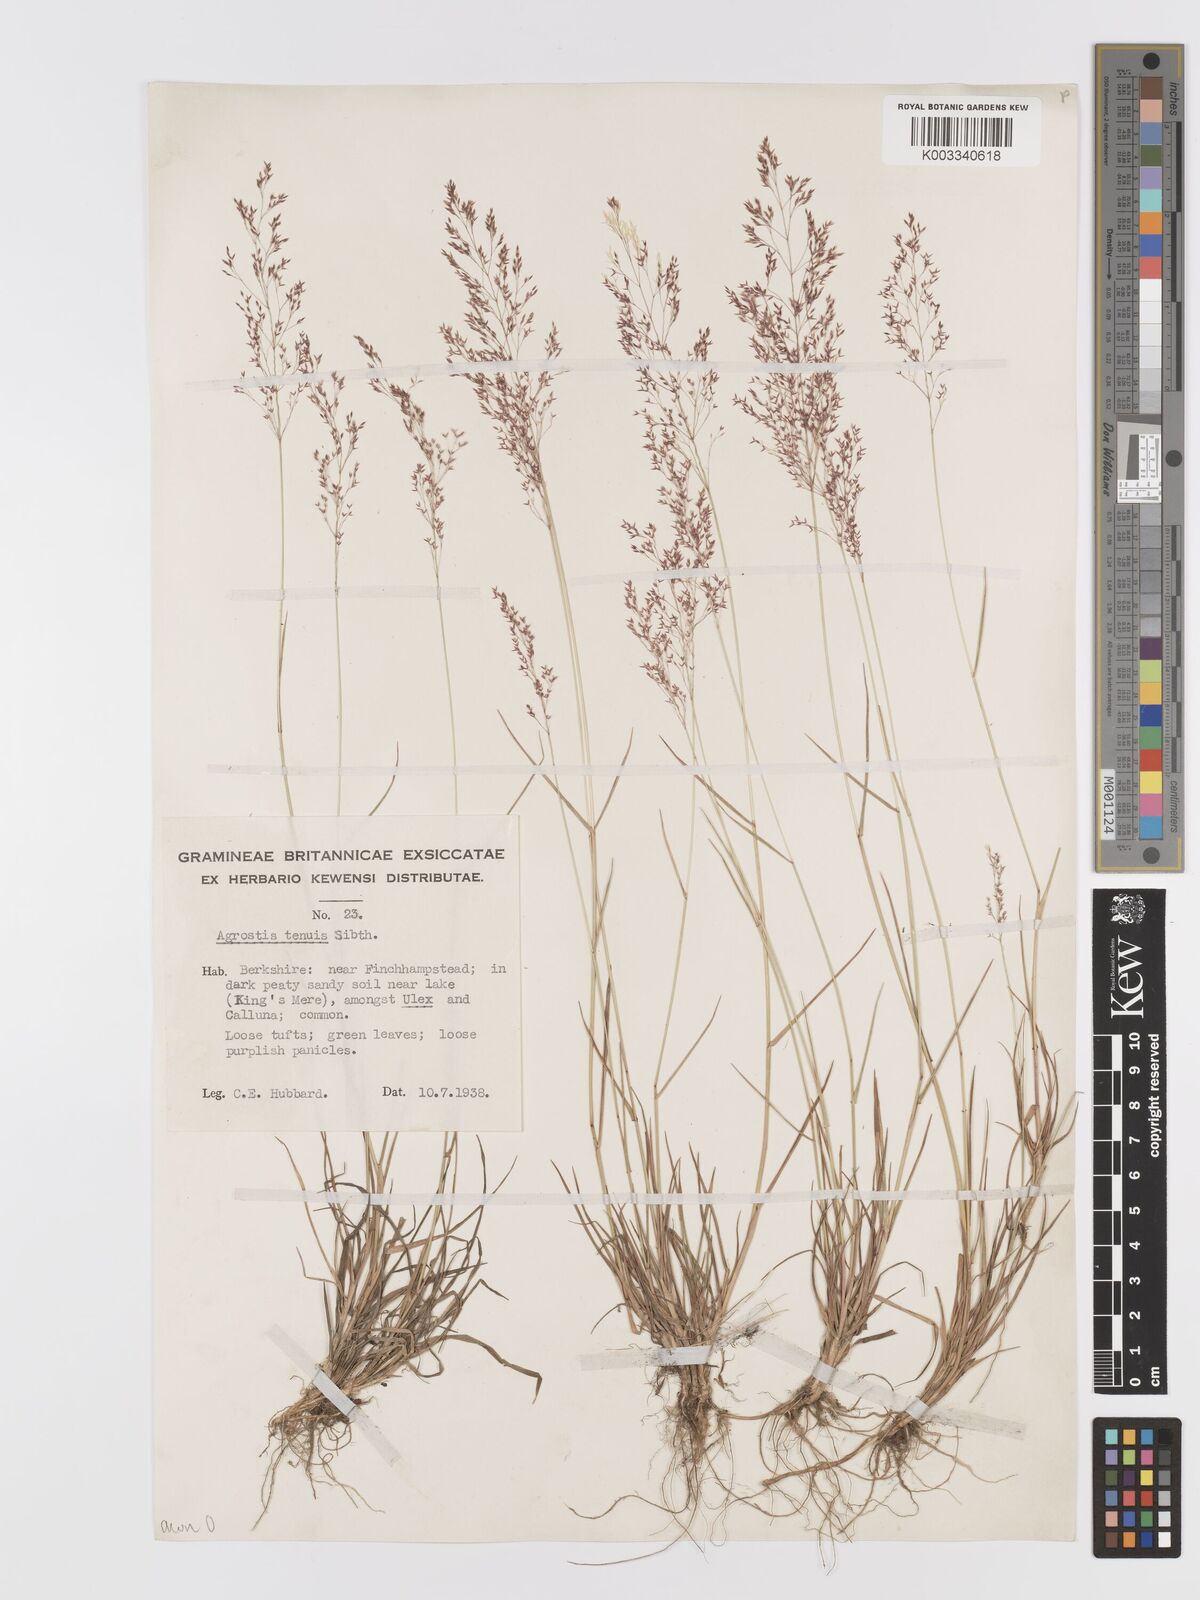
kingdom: Plantae
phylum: Tracheophyta
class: Liliopsida
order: Poales
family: Poaceae
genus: Agrostis
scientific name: Agrostis capillaris
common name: Colonial bentgrass
